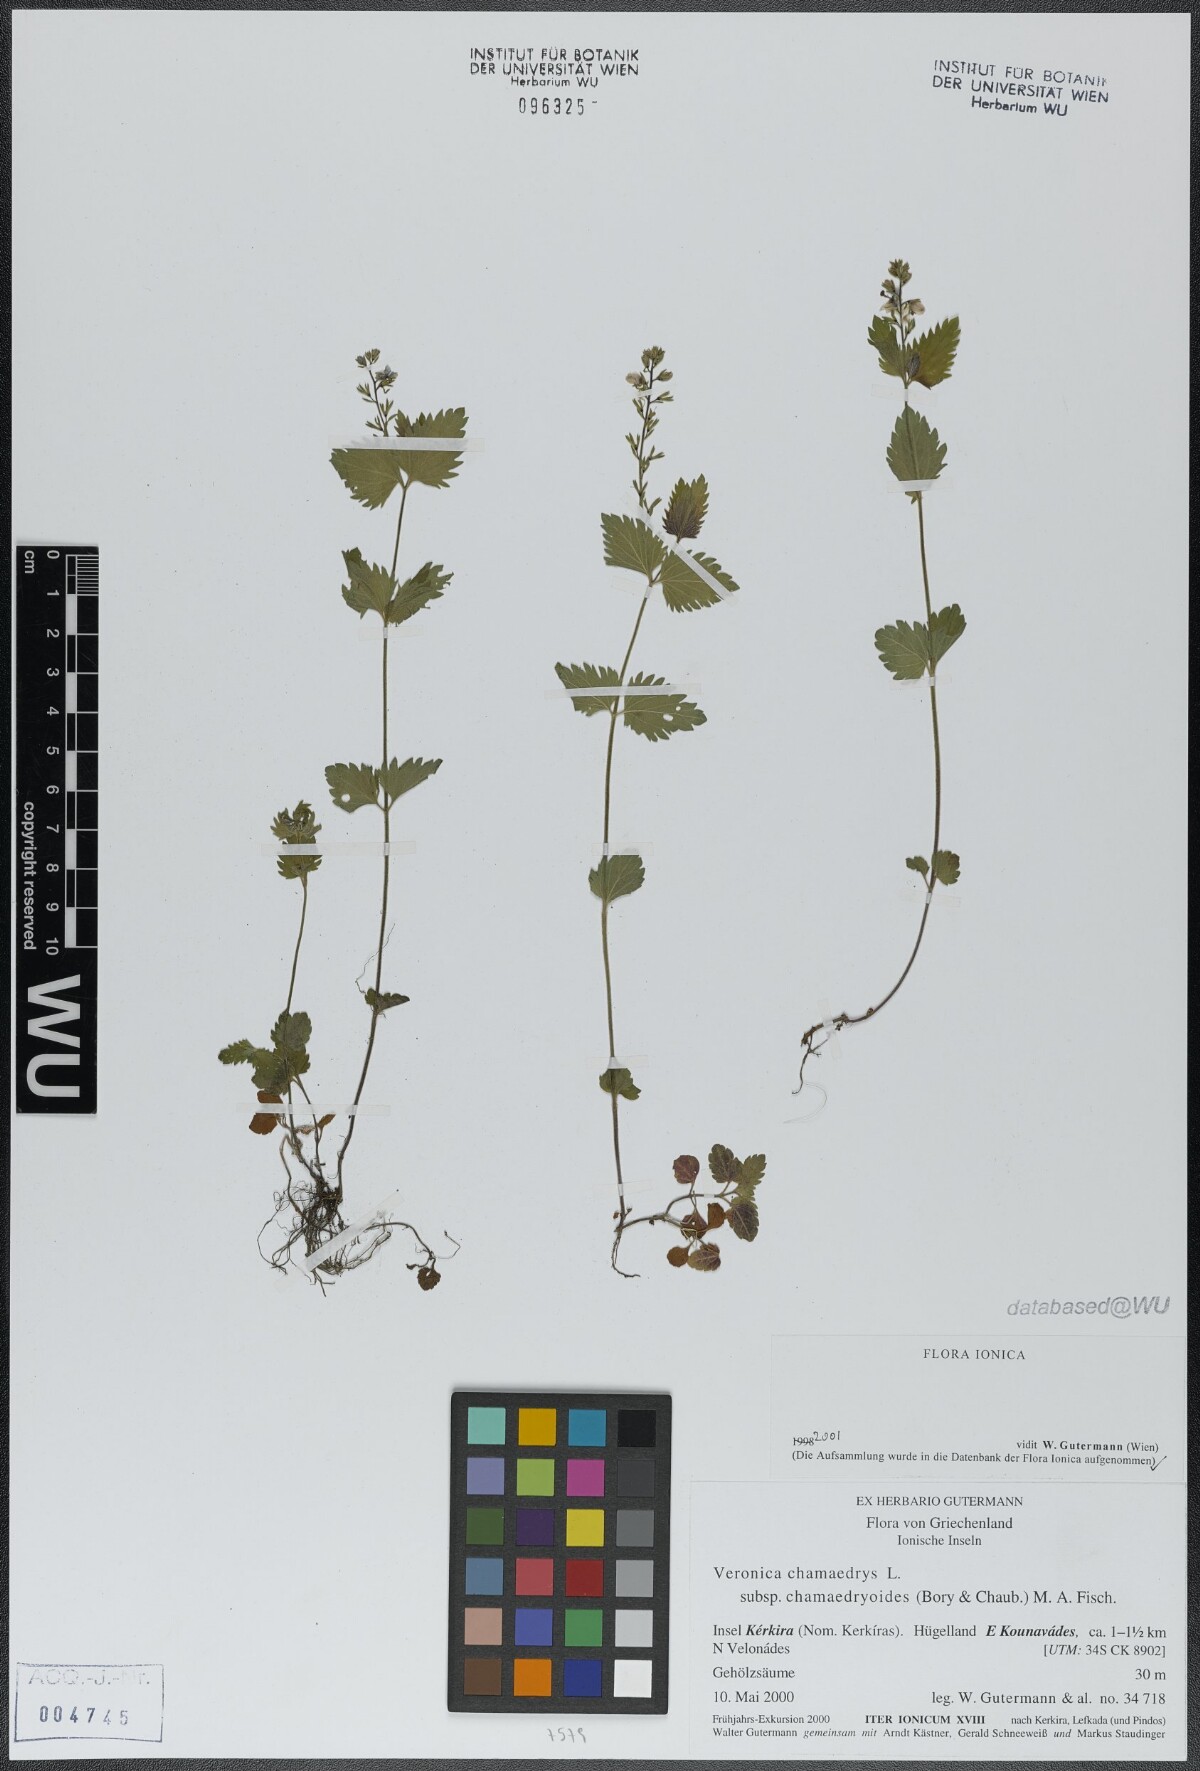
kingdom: Plantae
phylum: Tracheophyta
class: Magnoliopsida
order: Lamiales
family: Plantaginaceae
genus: Veronica
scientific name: Veronica chamaedrys
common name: Germander speedwell
